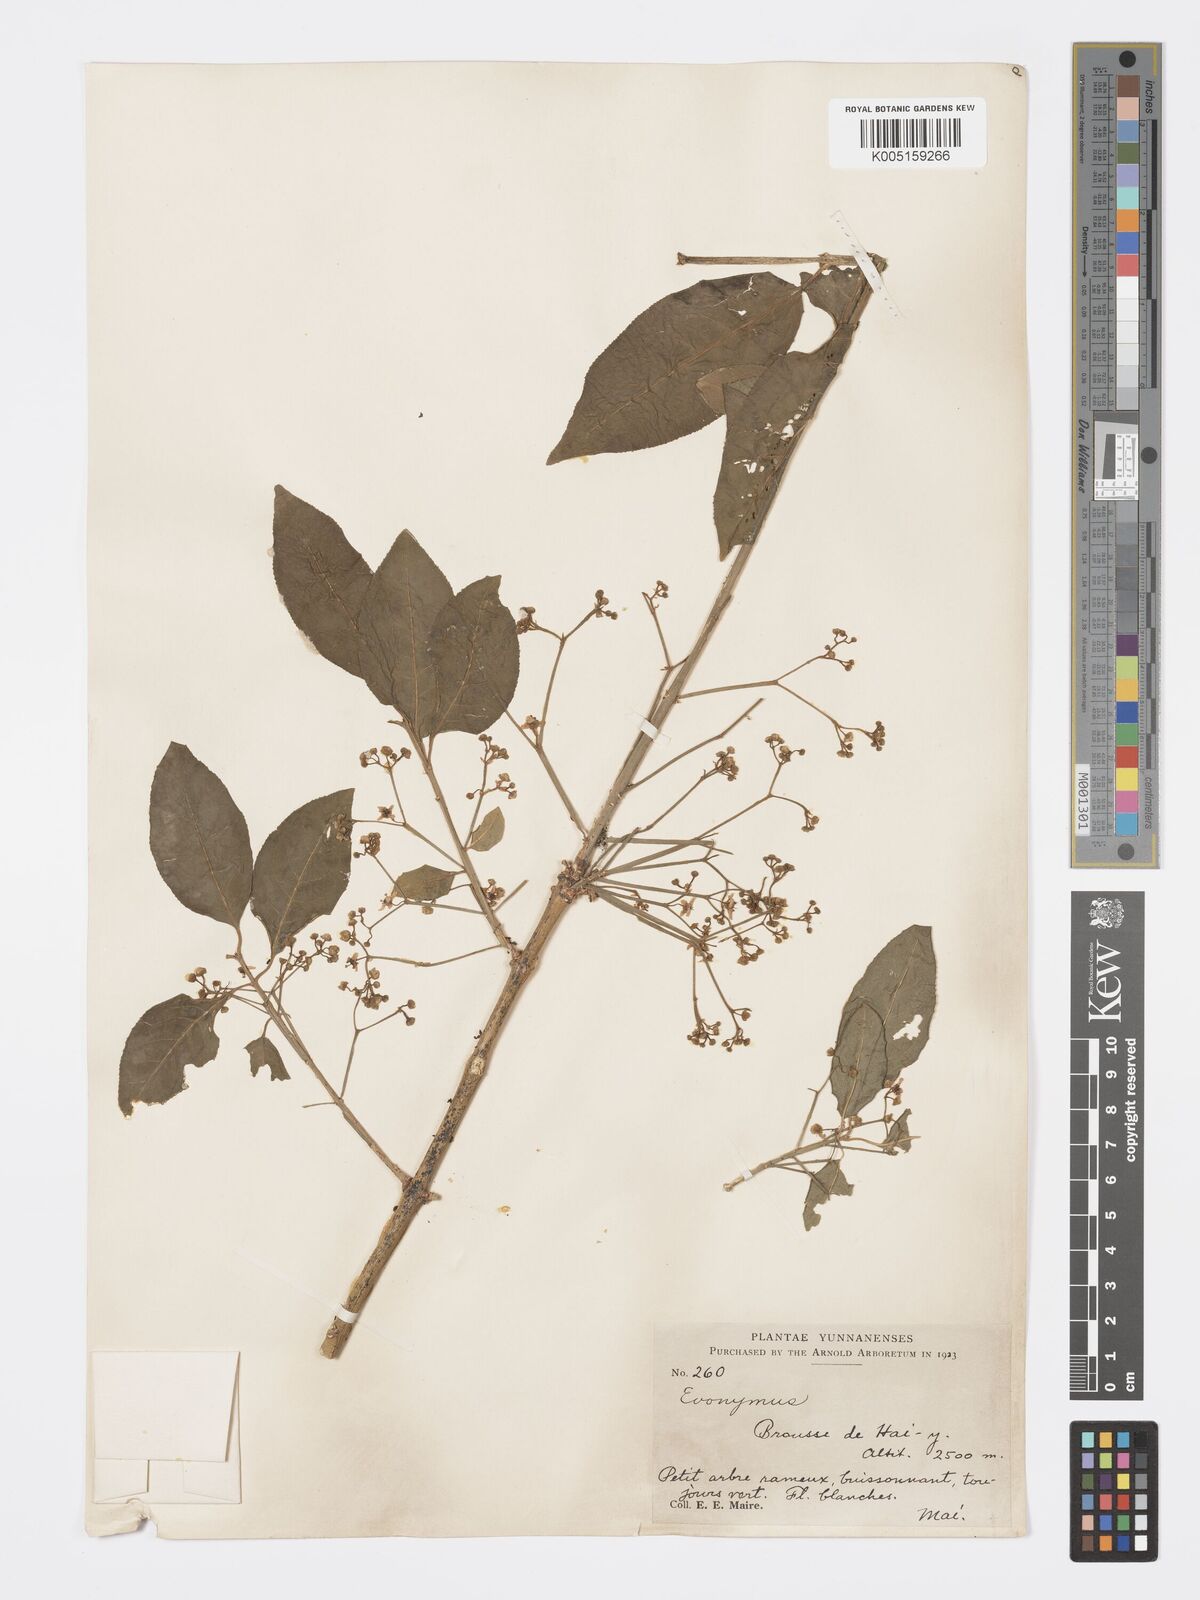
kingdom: Plantae
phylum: Tracheophyta
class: Magnoliopsida
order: Celastrales
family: Celastraceae
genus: Euonymus
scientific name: Euonymus hamiltonianus
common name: Hamilton's spindletree
